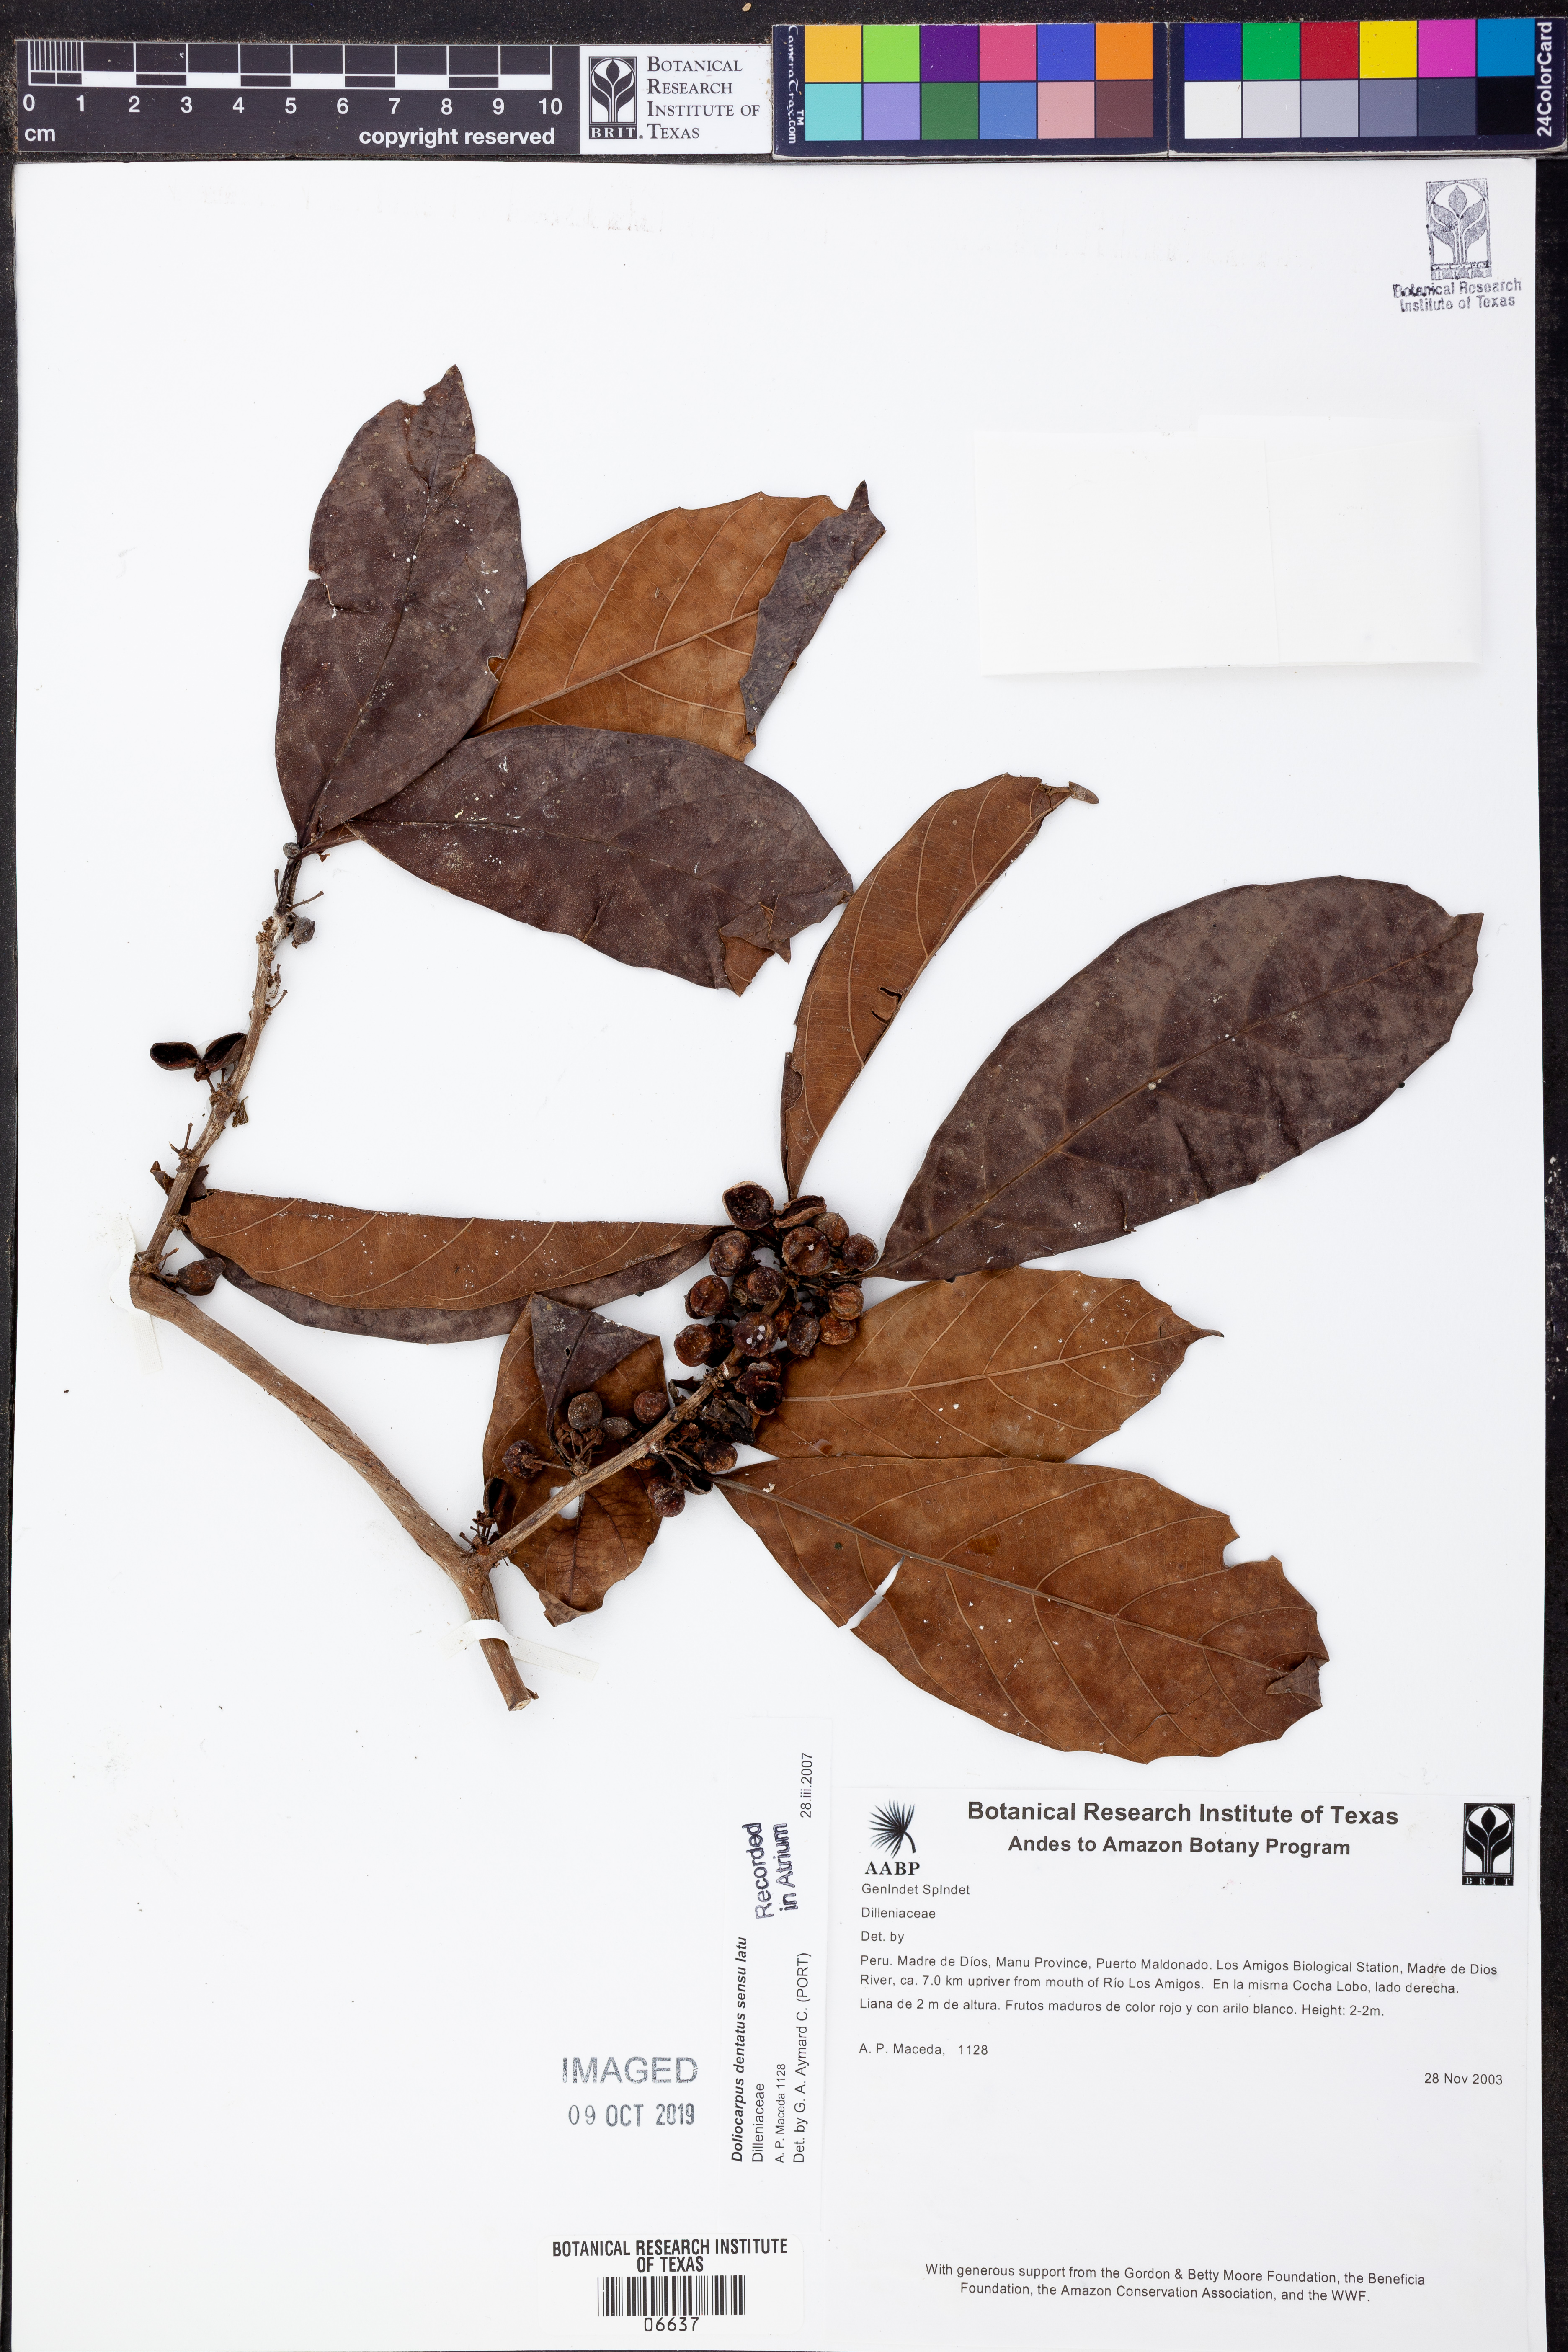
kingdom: Plantae
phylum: Tracheophyta
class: Magnoliopsida
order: Dilleniales
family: Dilleniaceae
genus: Doliocarpus
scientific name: Doliocarpus
